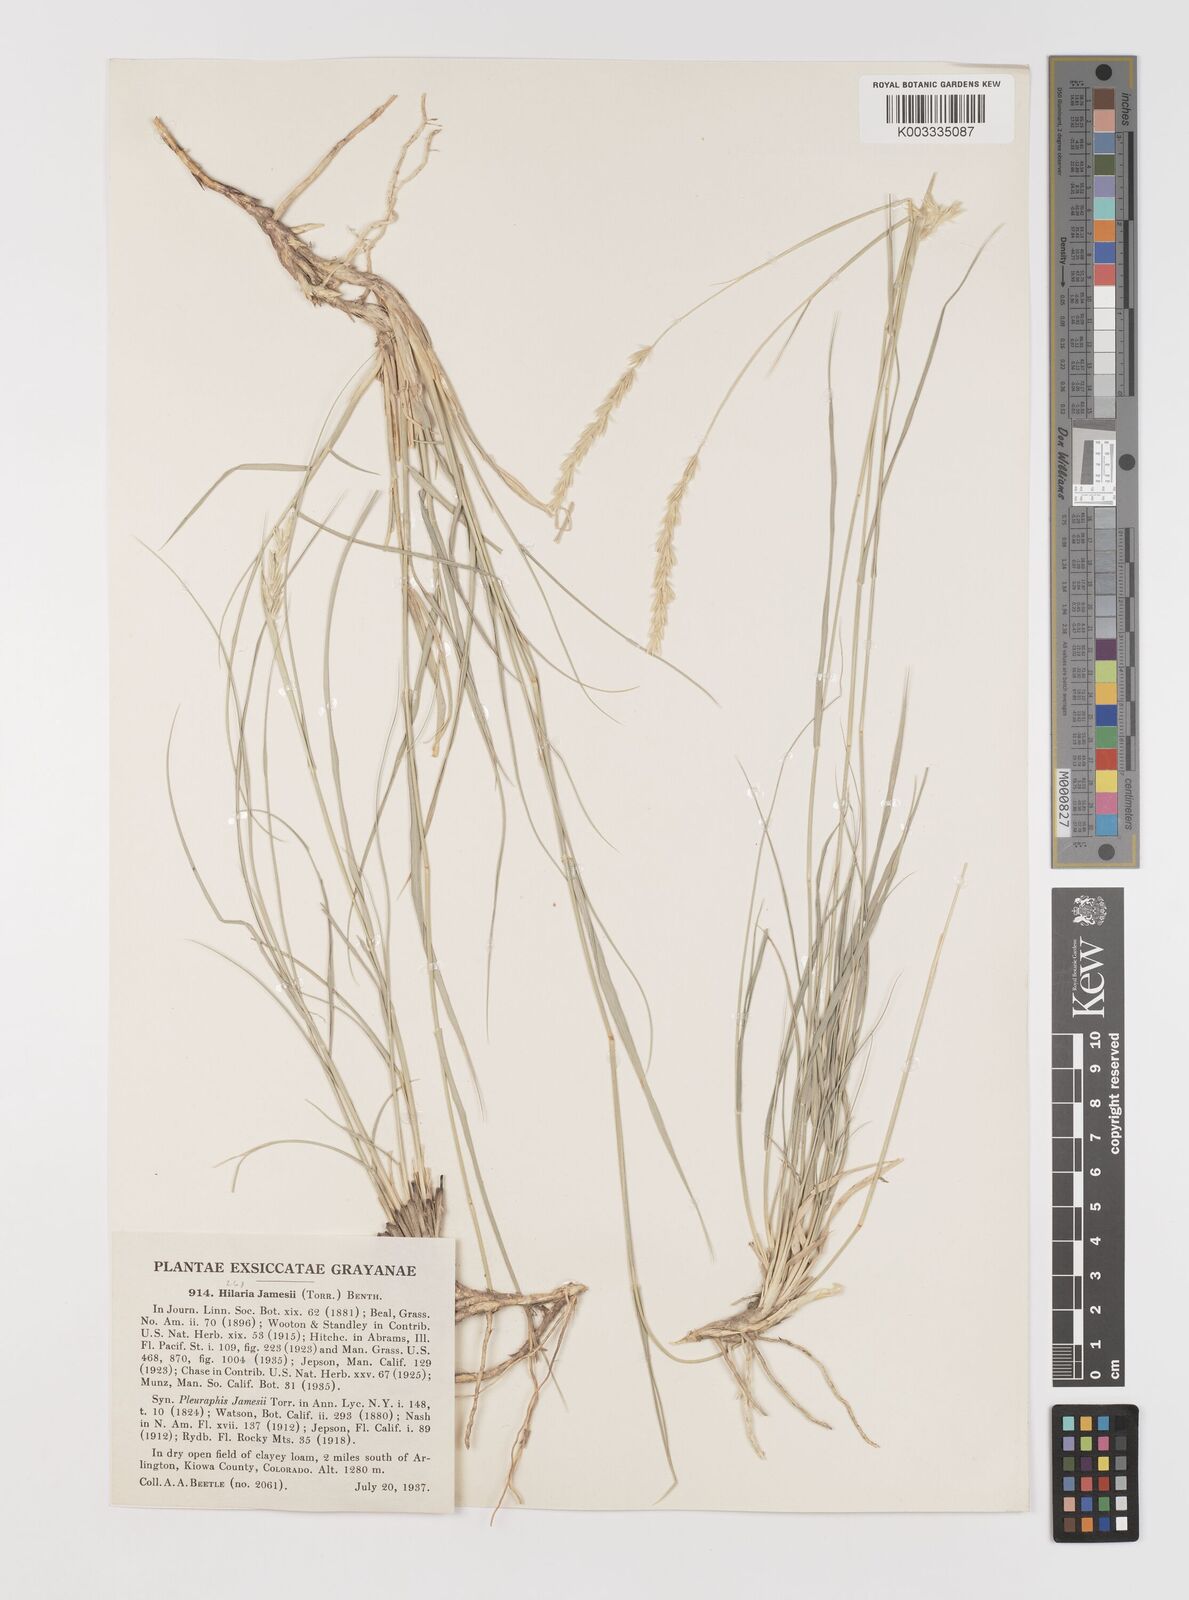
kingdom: Plantae
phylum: Tracheophyta
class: Liliopsida
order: Poales
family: Poaceae
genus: Hilaria
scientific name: Hilaria jamesii
